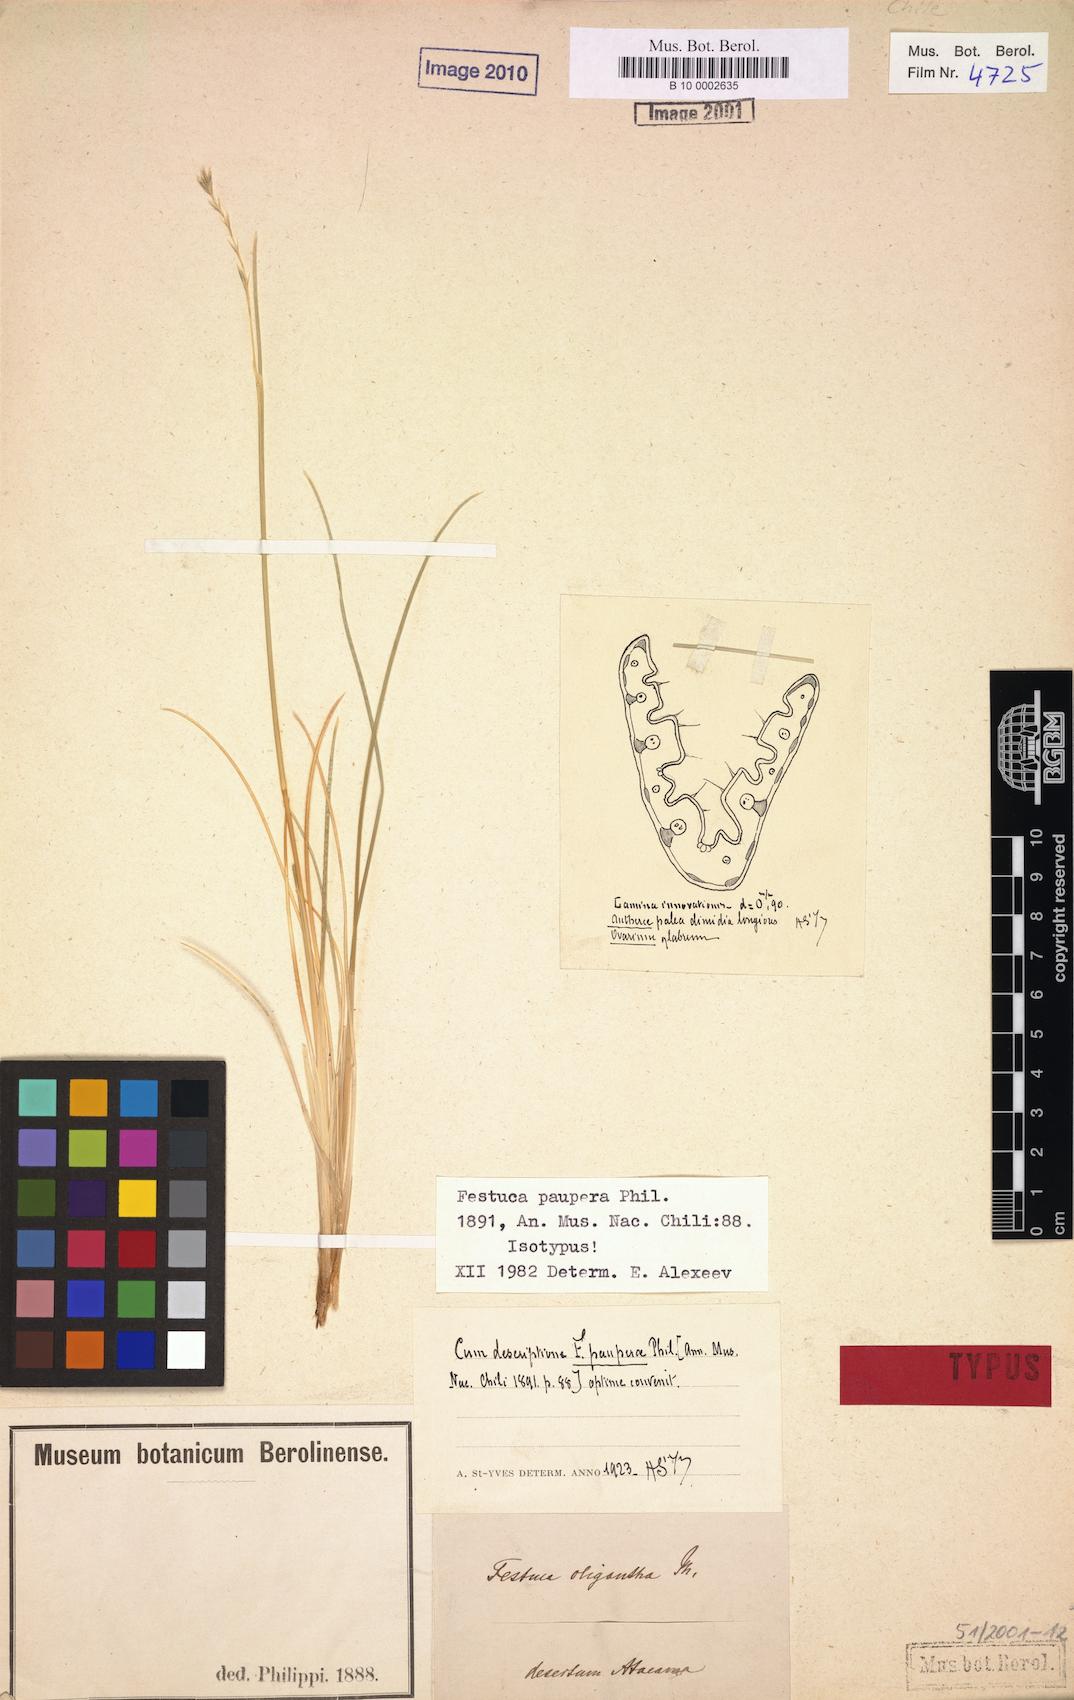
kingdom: Plantae
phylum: Tracheophyta
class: Liliopsida
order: Poales
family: Poaceae
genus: Festuca
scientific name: Festuca rigescens
